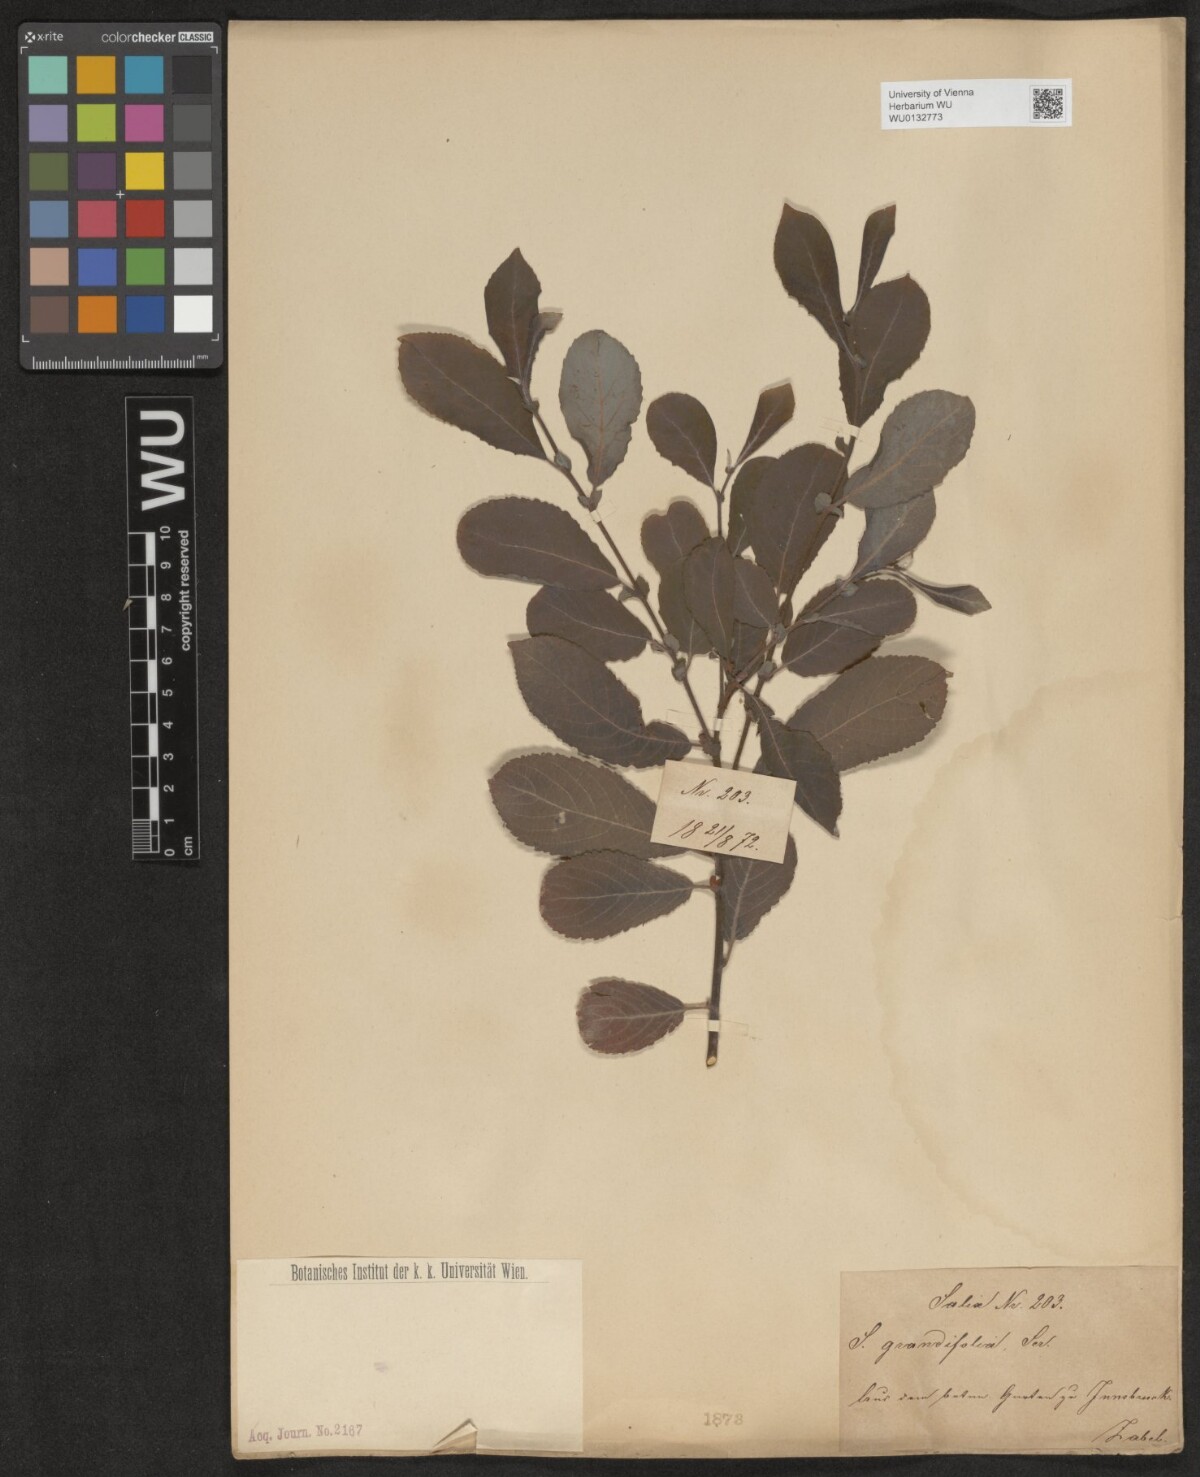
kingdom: Plantae
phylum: Tracheophyta
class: Magnoliopsida
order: Malpighiales
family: Salicaceae
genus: Salix
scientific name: Salix appendiculata
